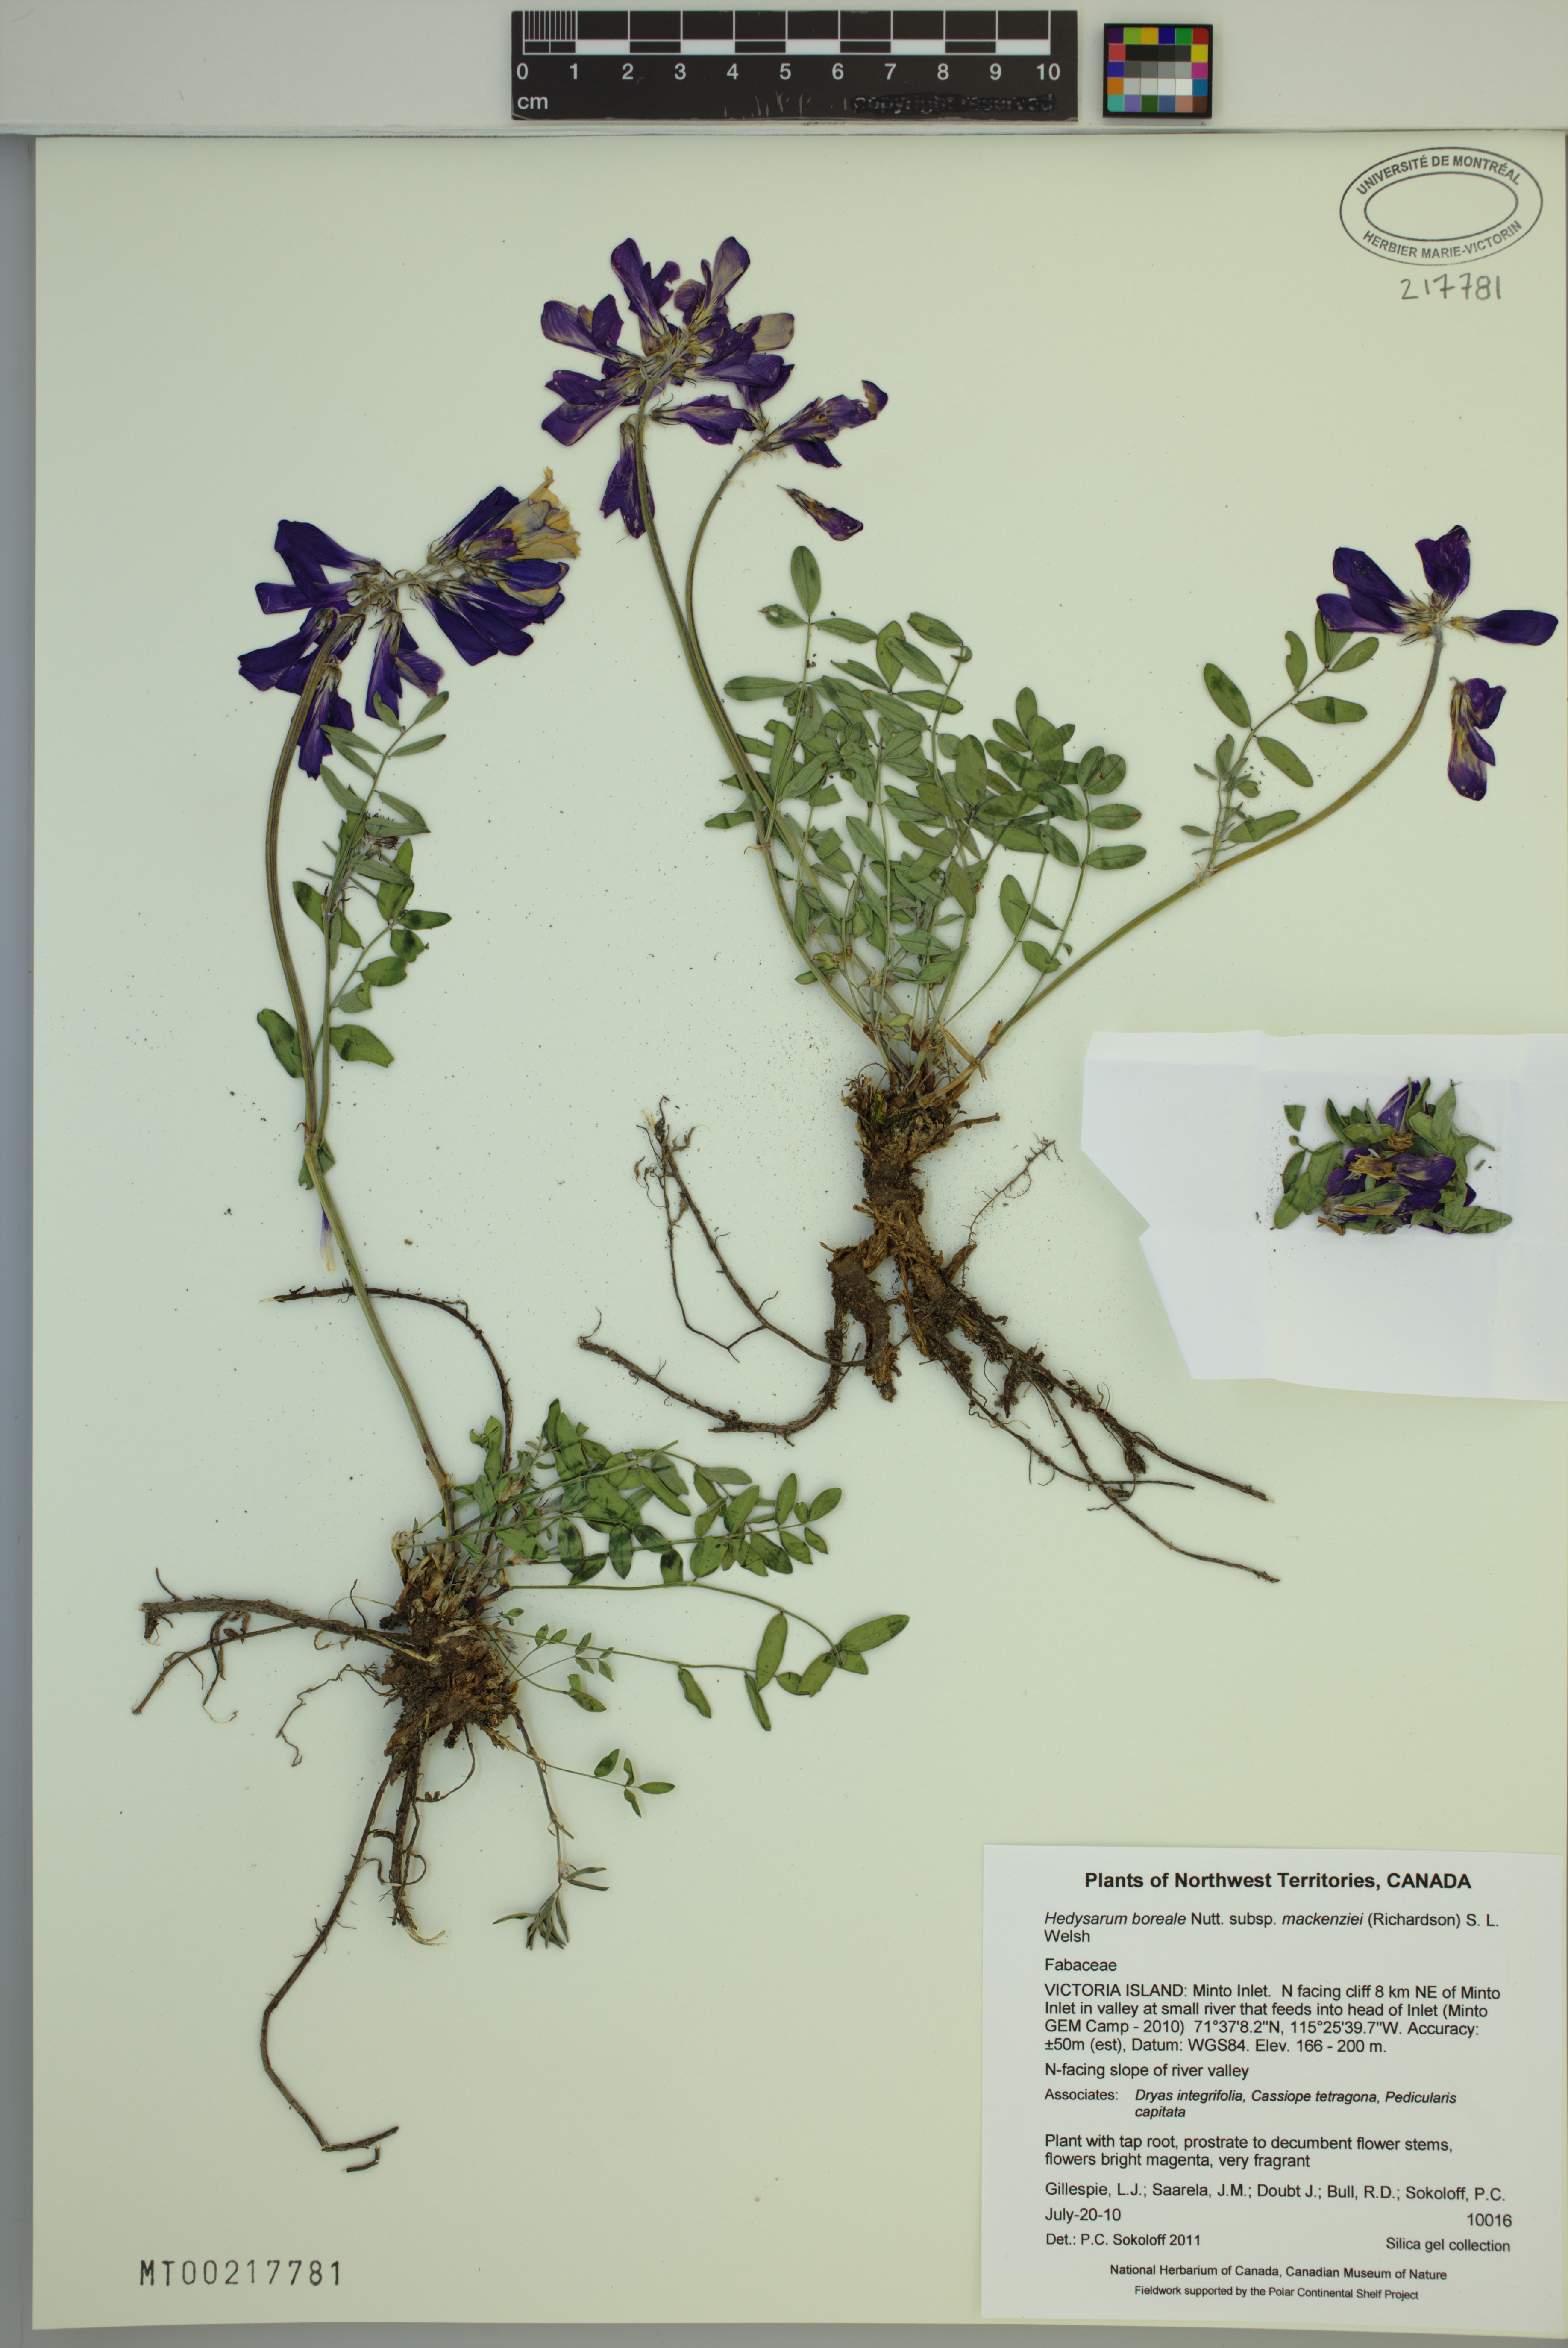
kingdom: Plantae
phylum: Tracheophyta
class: Magnoliopsida
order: Fabales
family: Fabaceae
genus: Hedysarum
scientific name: Hedysarum boreale
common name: Northern sweet-vetch
